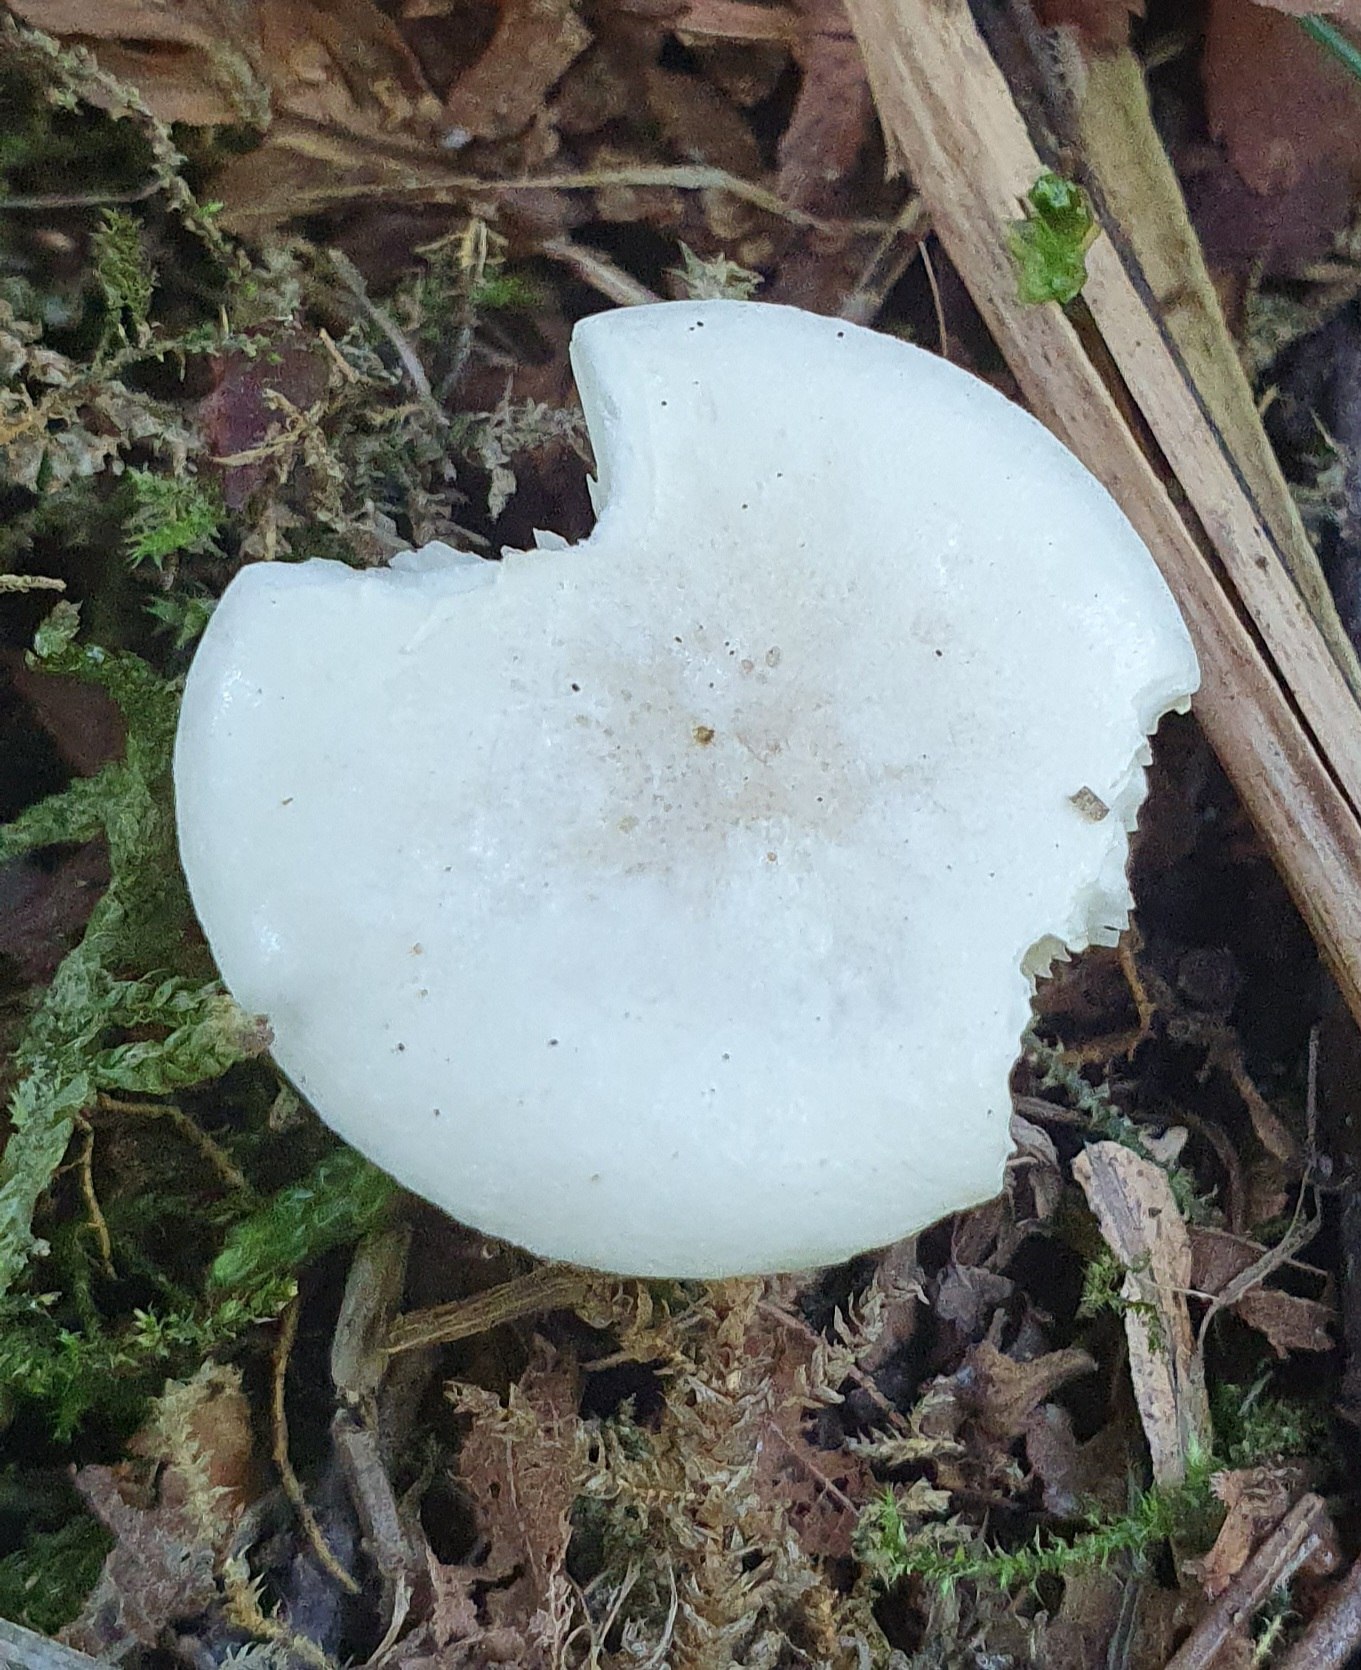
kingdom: Fungi
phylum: Basidiomycota
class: Agaricomycetes
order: Agaricales
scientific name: Agaricales
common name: champignonordenen
